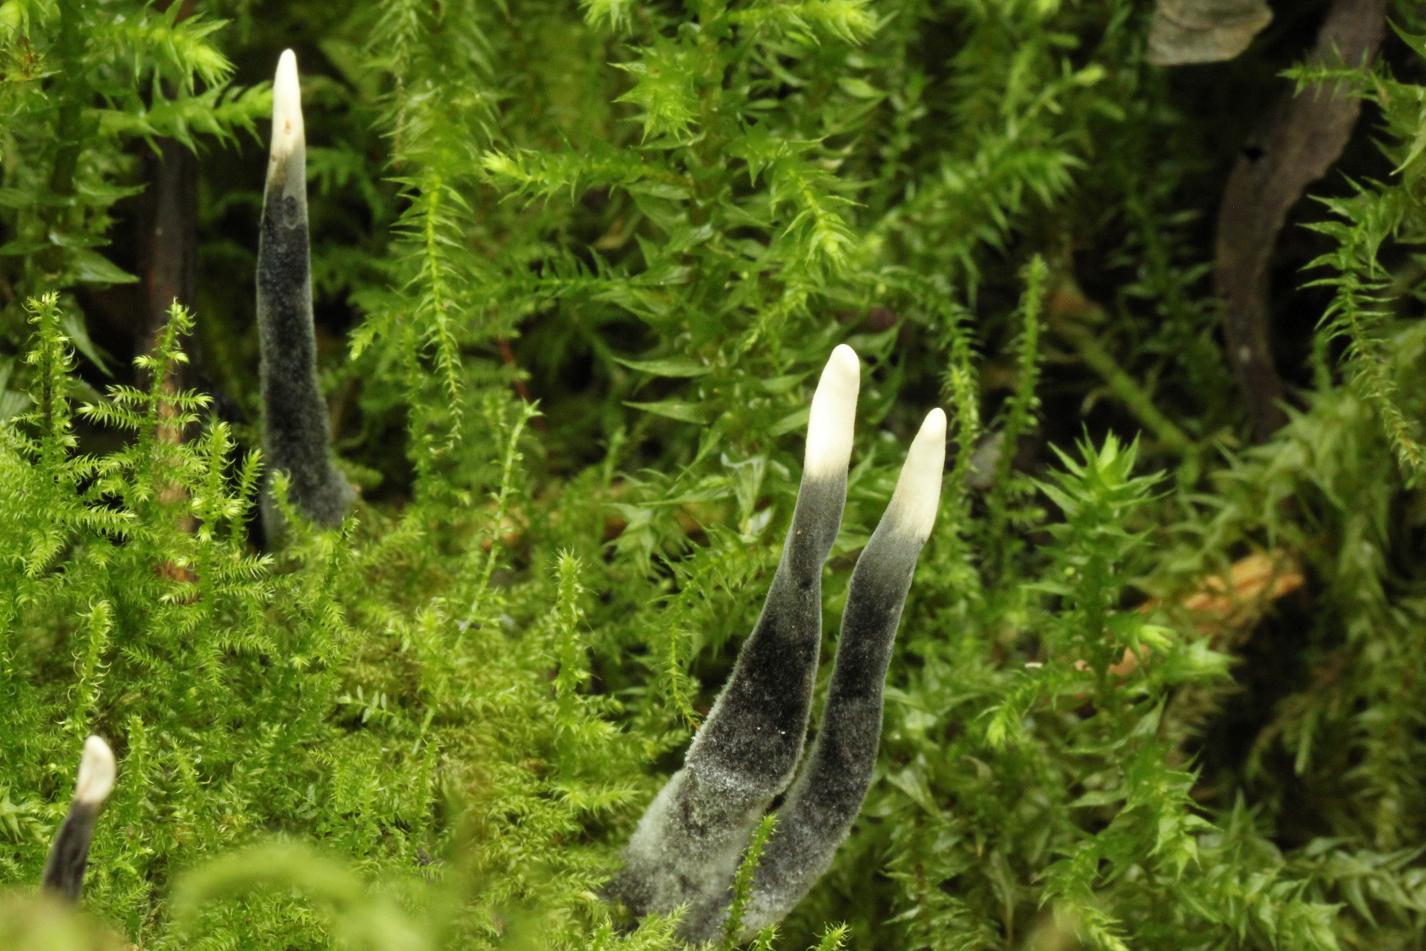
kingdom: Fungi
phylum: Ascomycota
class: Sordariomycetes
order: Xylariales
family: Xylariaceae
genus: Xylaria
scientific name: Xylaria hypoxylon
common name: grenet stødsvamp
